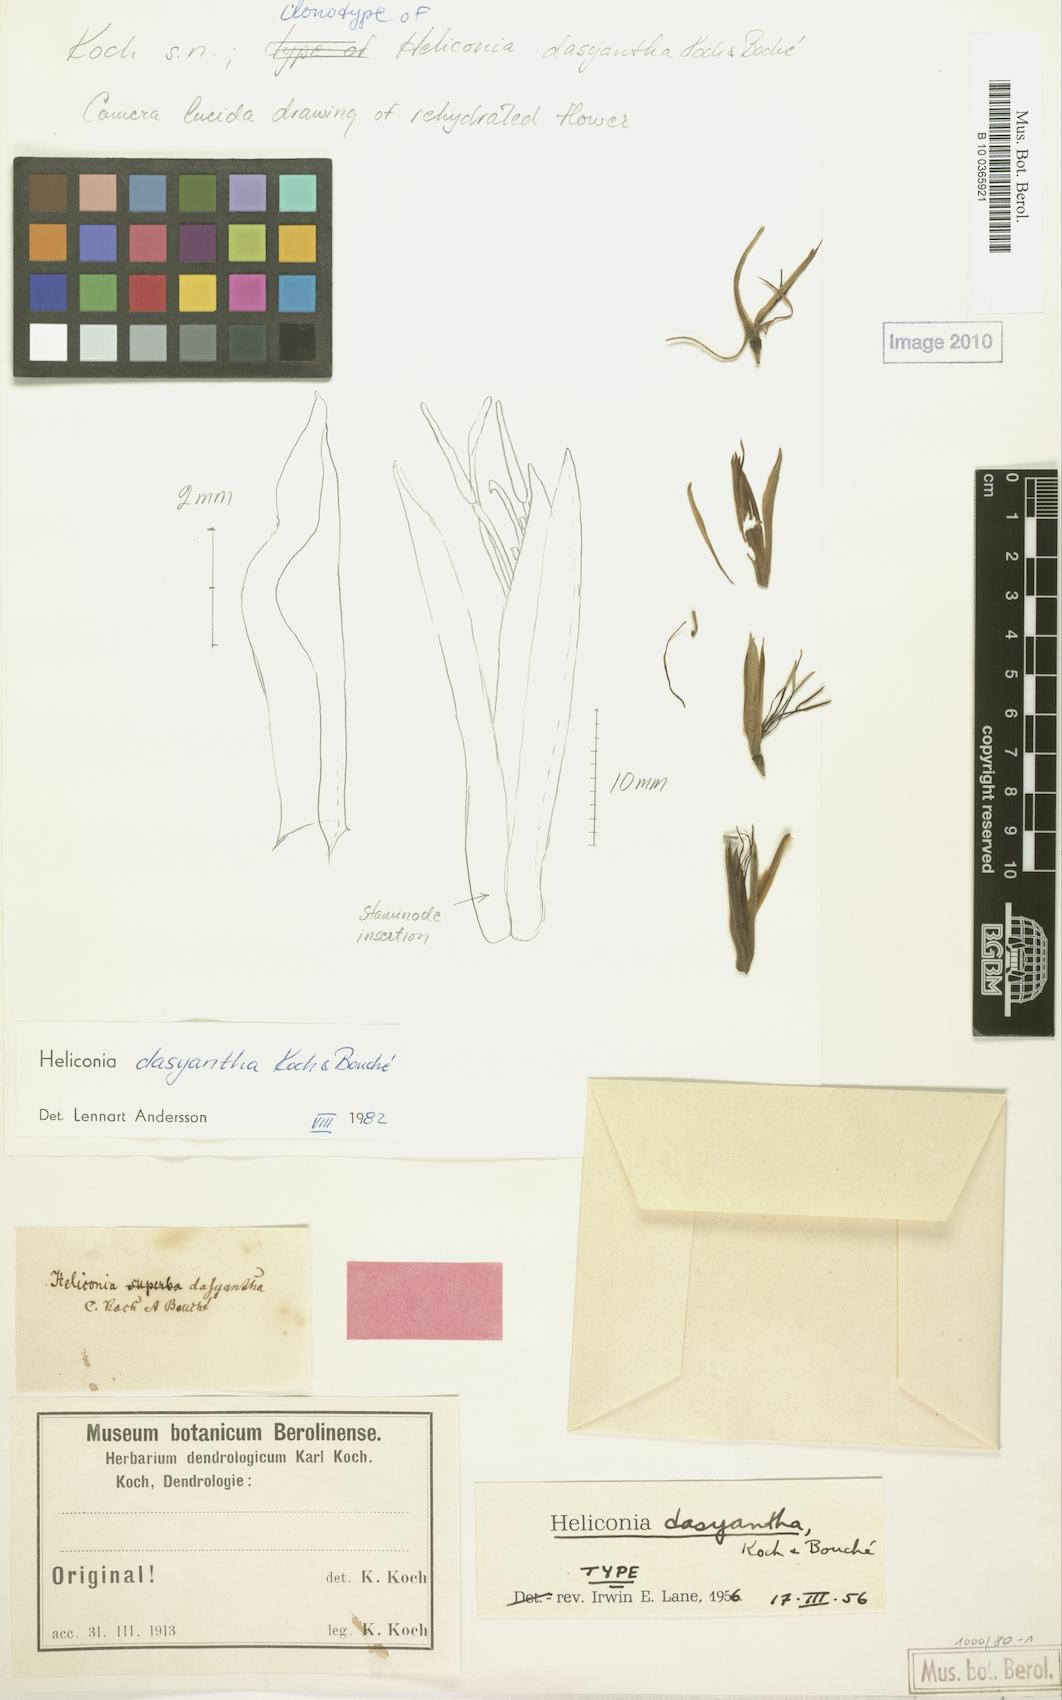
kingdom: Plantae
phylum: Tracheophyta
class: Liliopsida
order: Zingiberales
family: Heliconiaceae
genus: Heliconia
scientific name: Heliconia dasyantha
